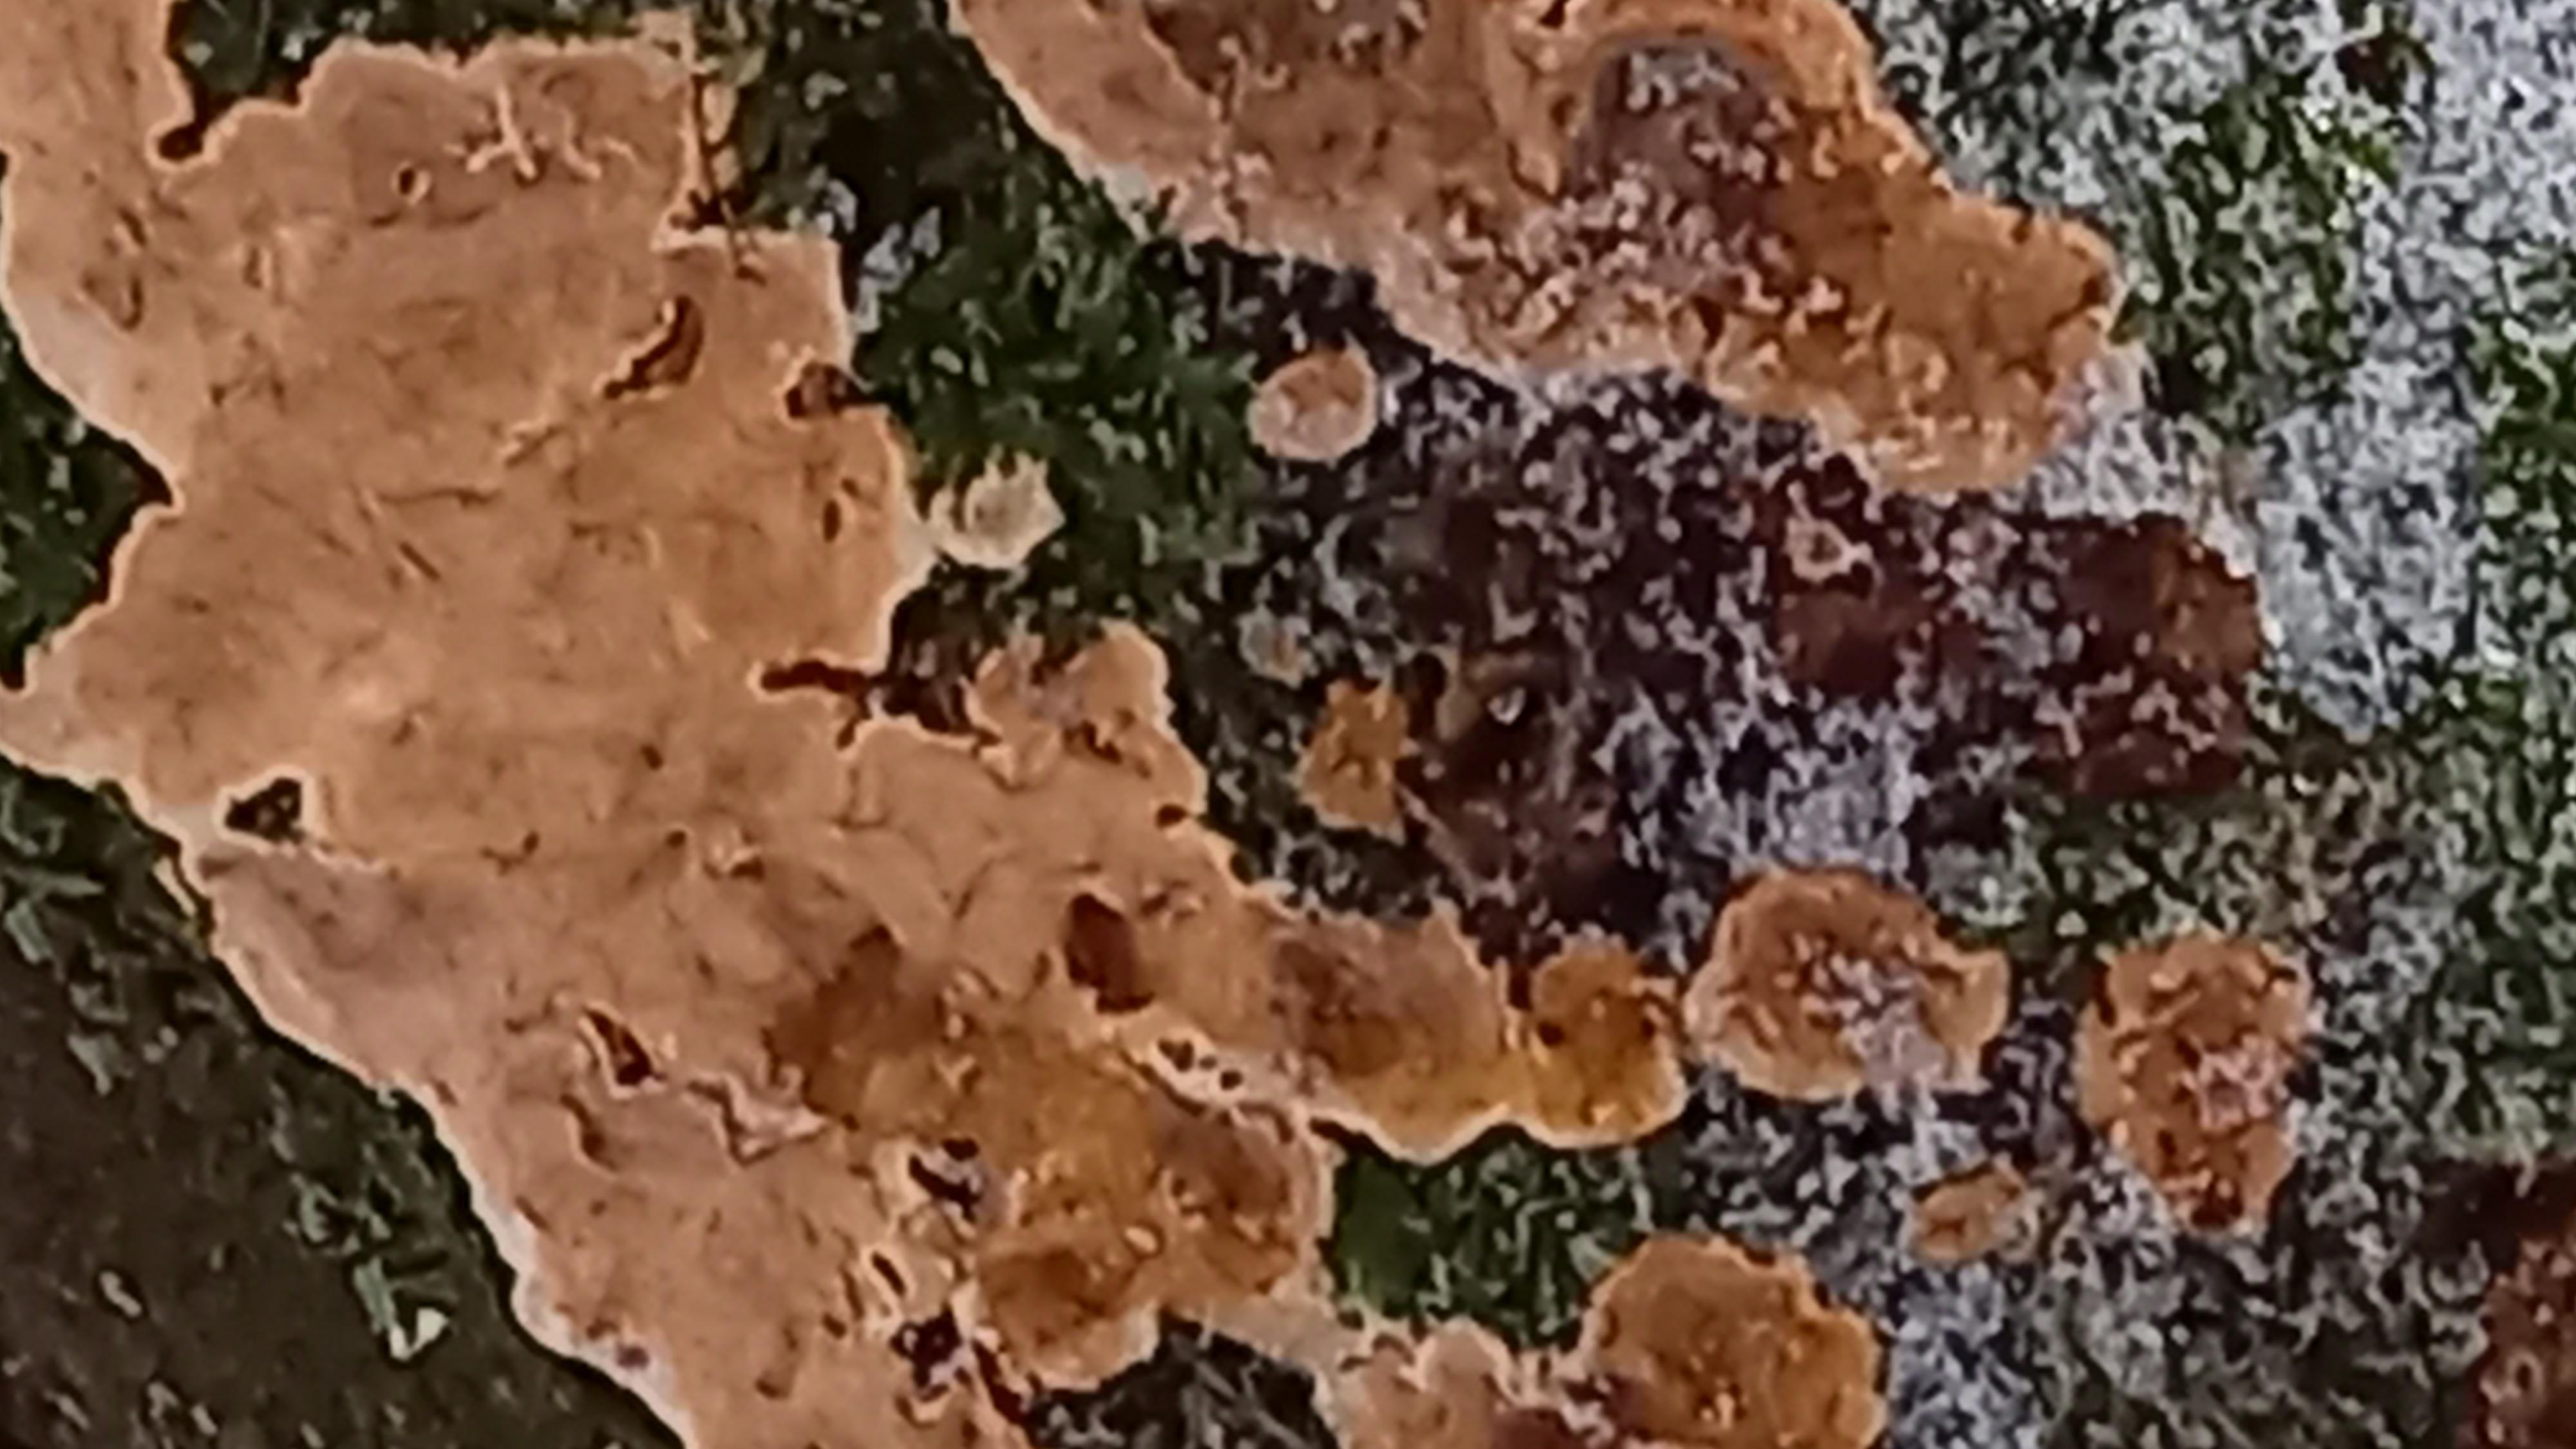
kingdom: Fungi
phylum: Basidiomycota
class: Agaricomycetes
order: Russulales
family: Peniophoraceae
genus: Peniophora
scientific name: Peniophora incarnata
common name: laksefarvet voksskind
